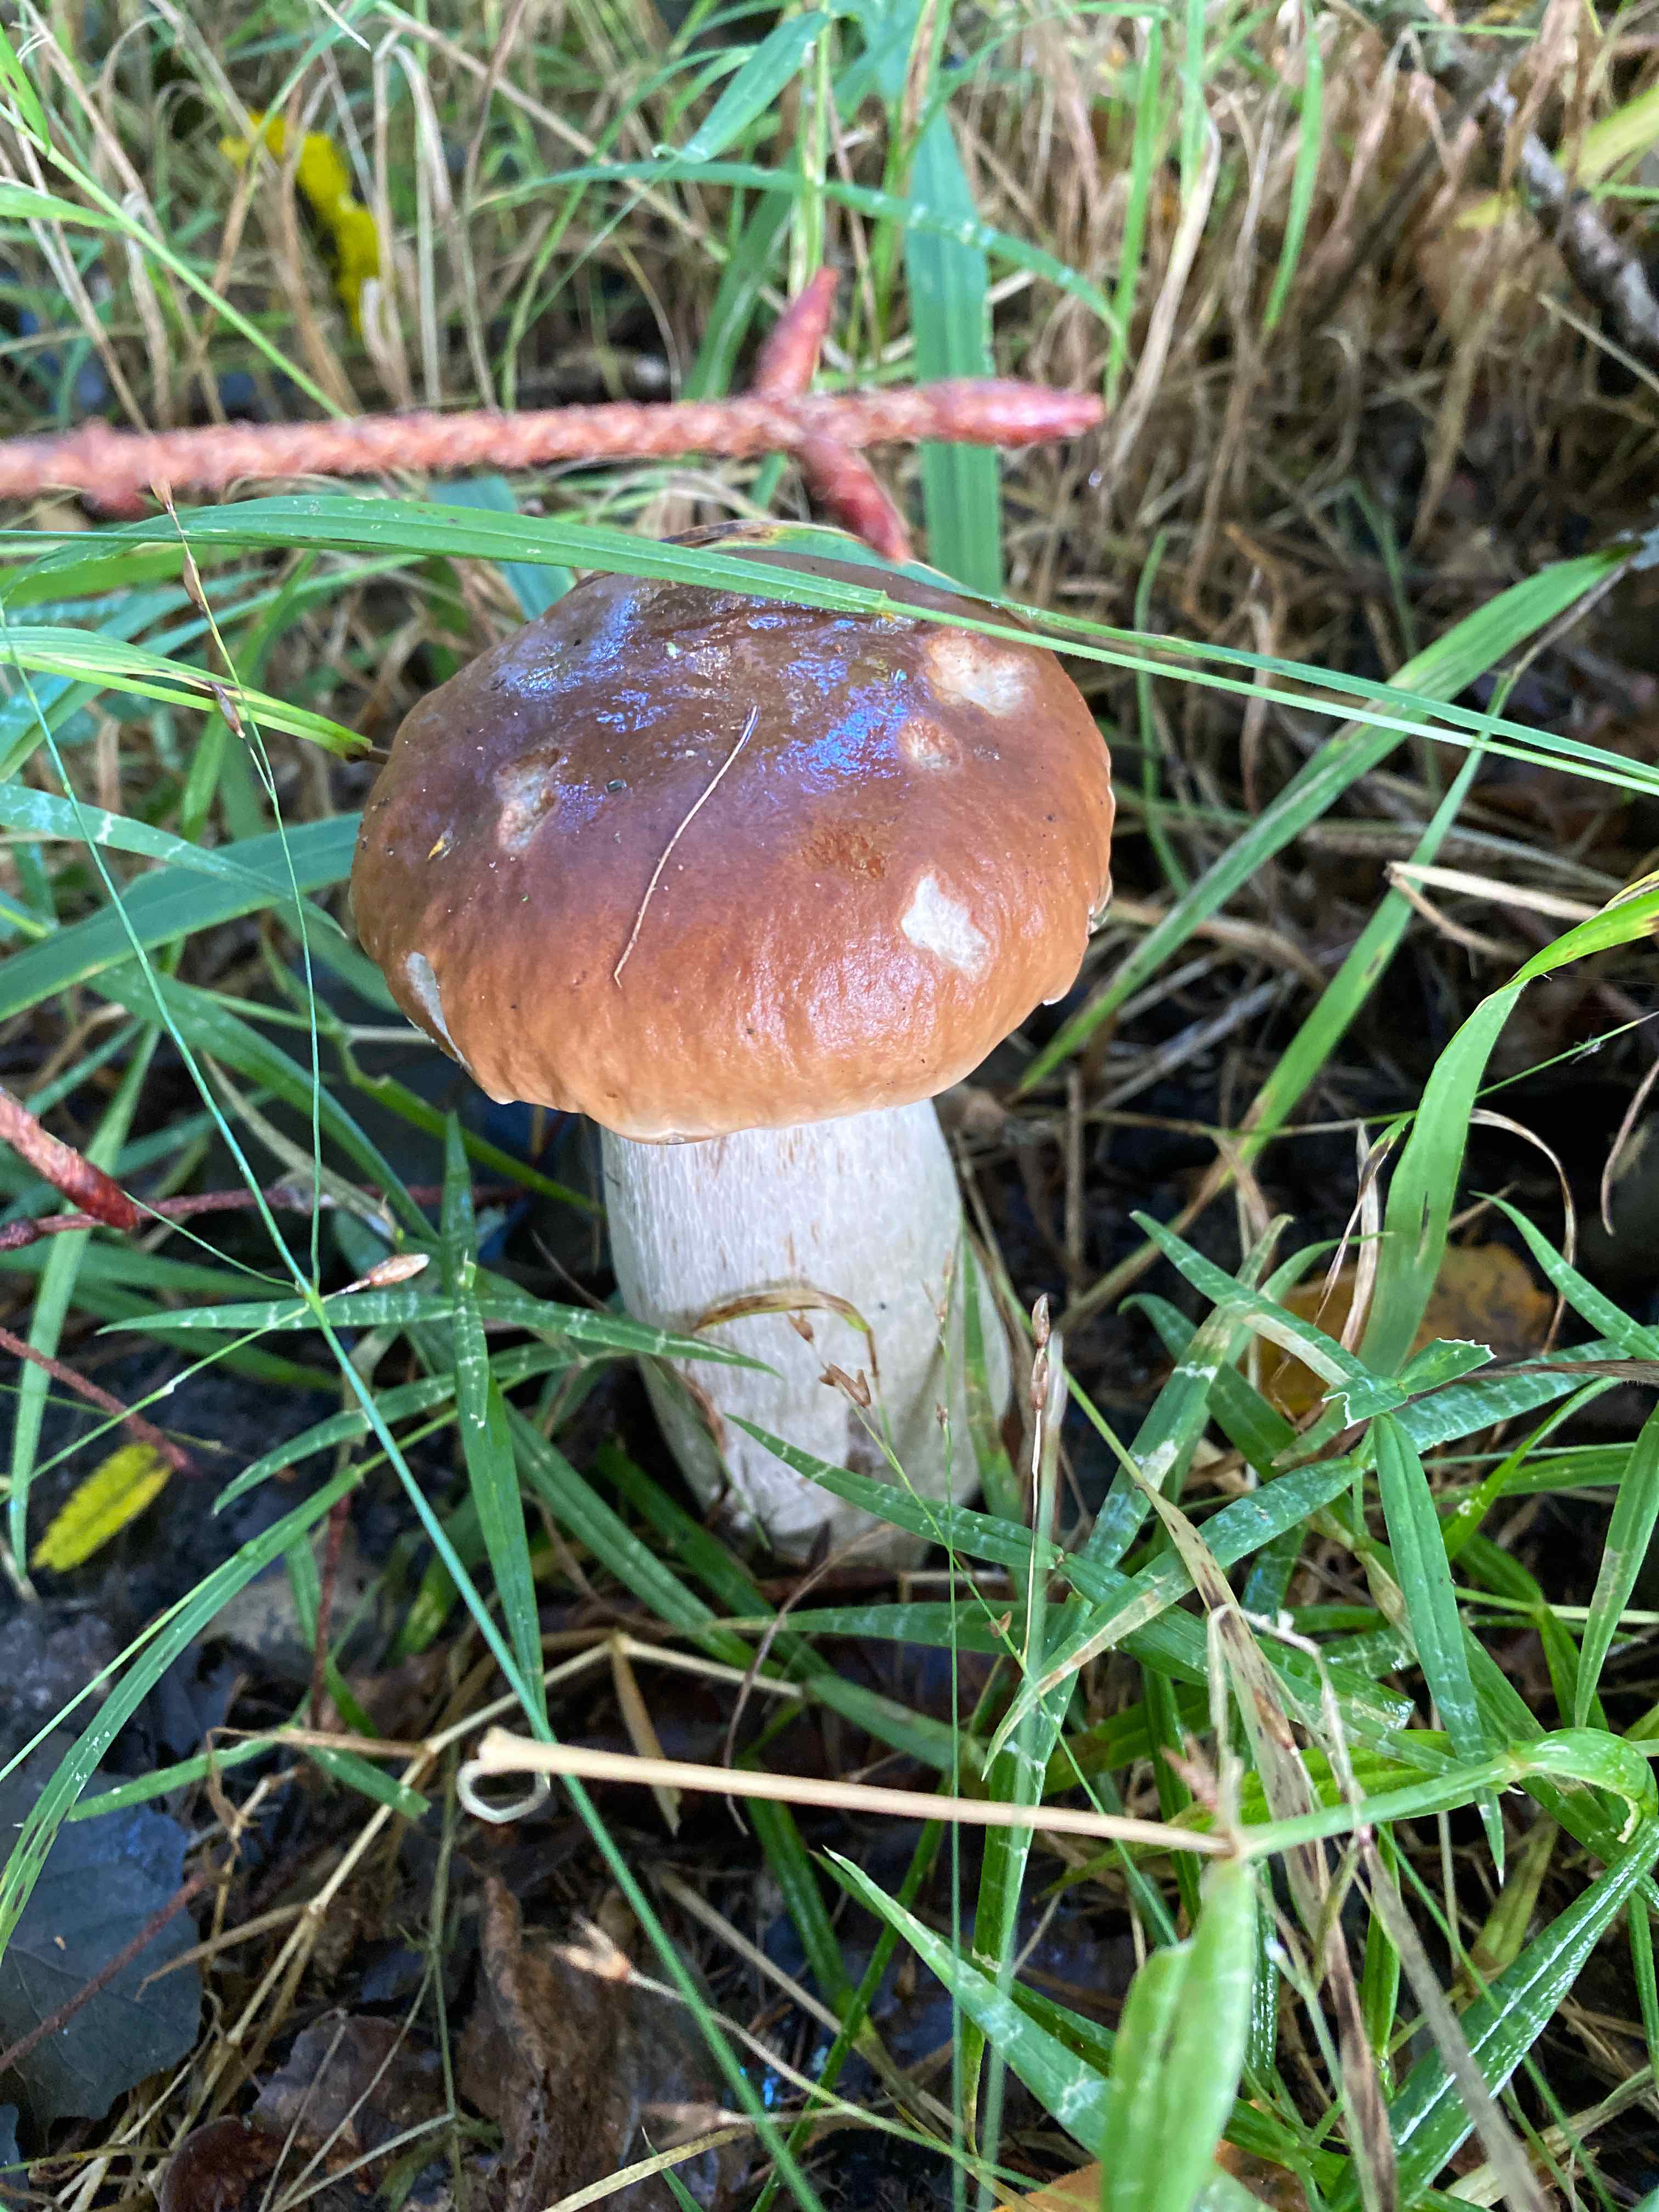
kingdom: Fungi
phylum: Basidiomycota
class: Agaricomycetes
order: Boletales
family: Boletaceae
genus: Boletus
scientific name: Boletus edulis
